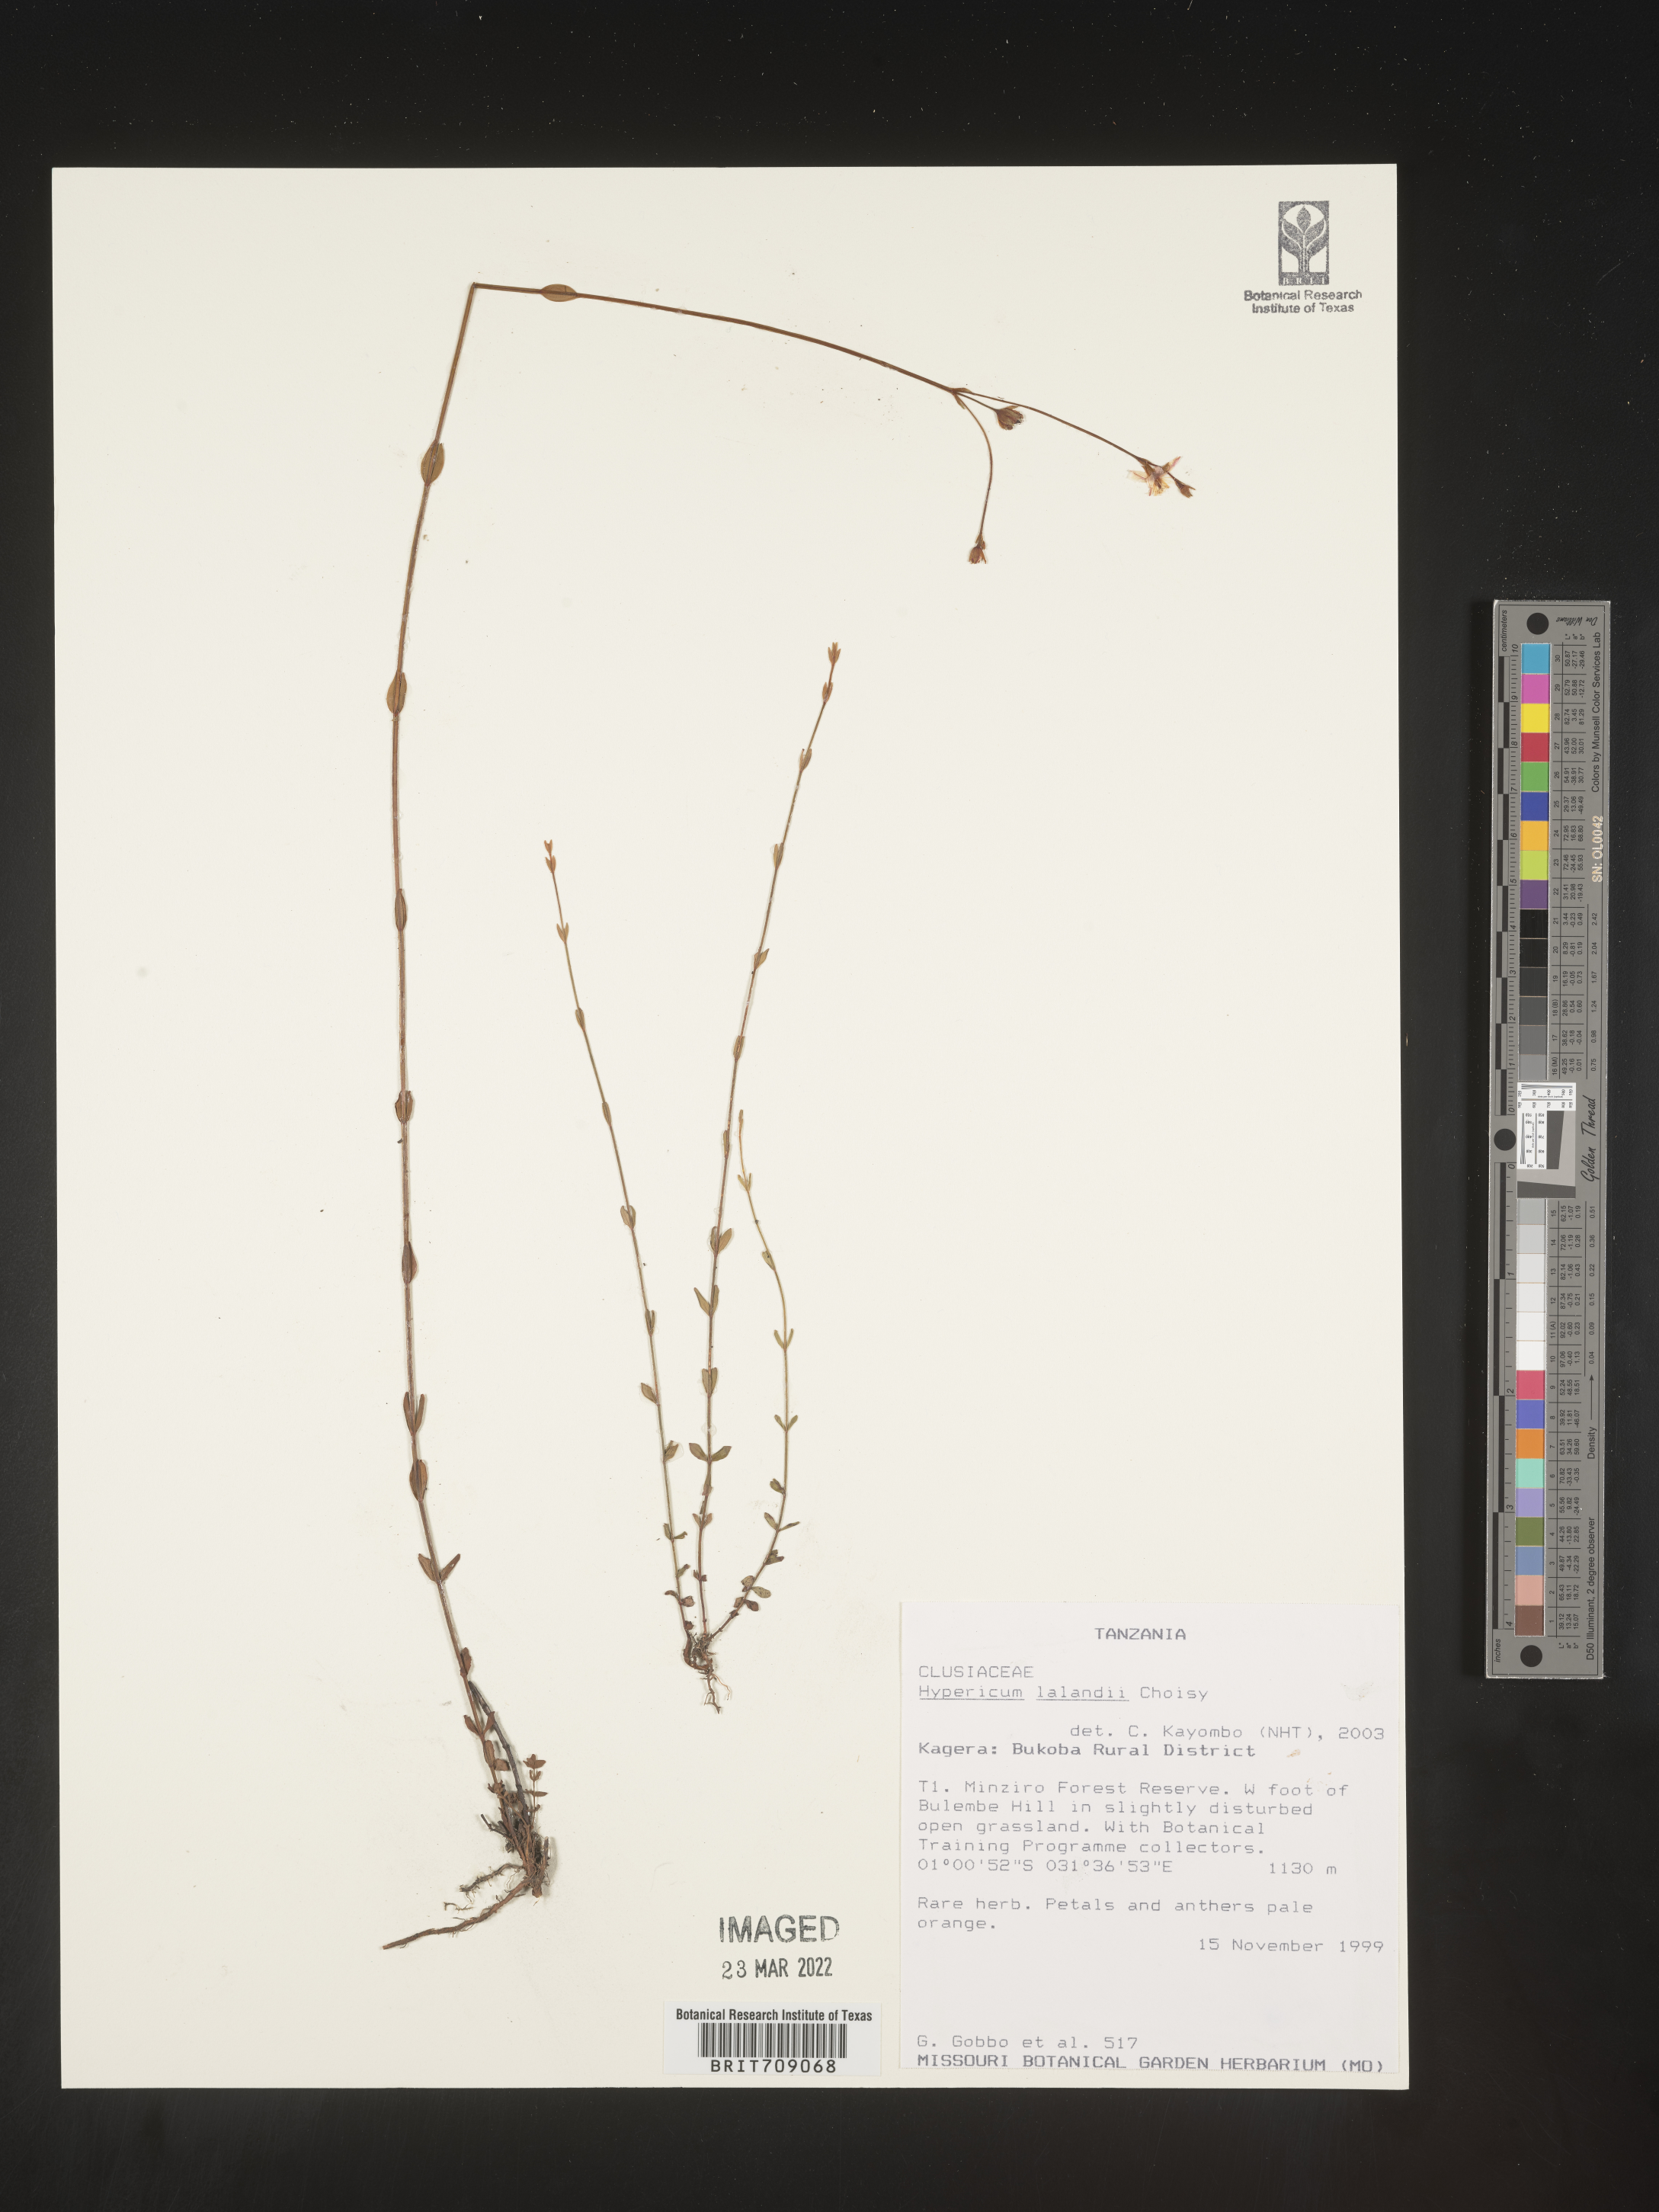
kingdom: Plantae
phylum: Tracheophyta
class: Magnoliopsida
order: Malpighiales
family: Hypericaceae
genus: Hypericum
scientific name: Hypericum
